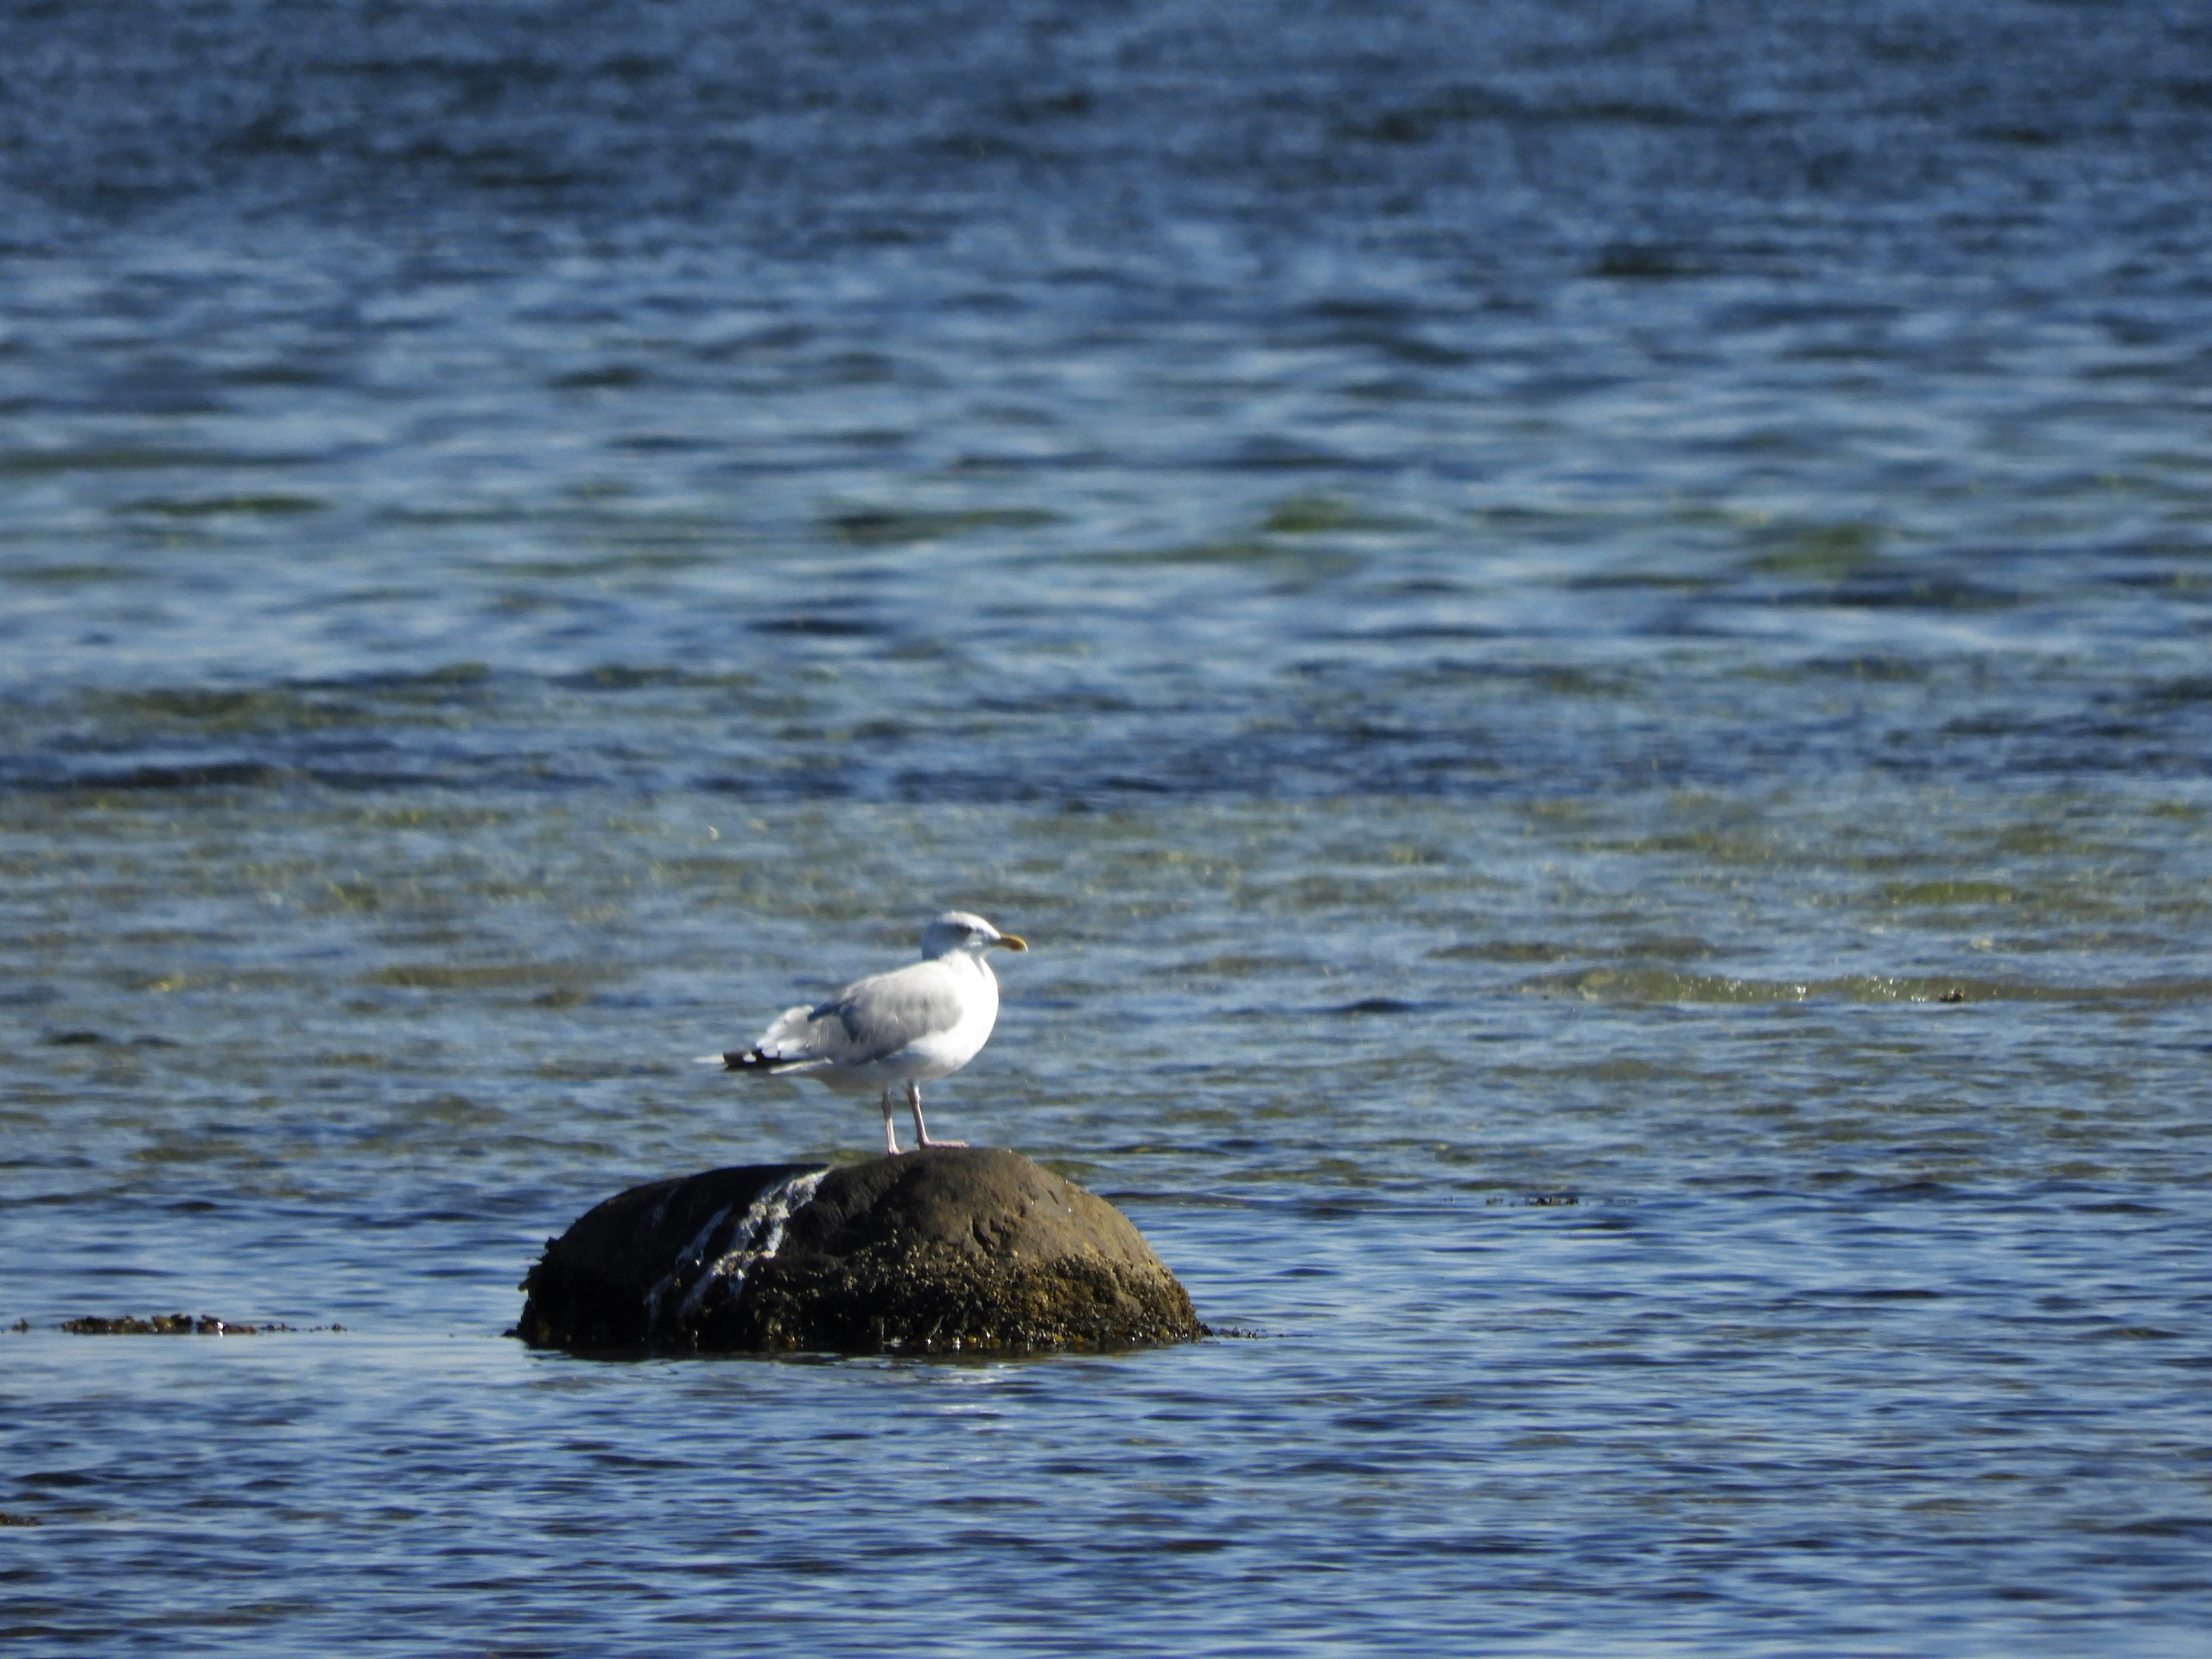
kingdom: Animalia
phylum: Chordata
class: Aves
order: Charadriiformes
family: Laridae
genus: Larus
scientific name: Larus argentatus
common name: Sølvmåge
